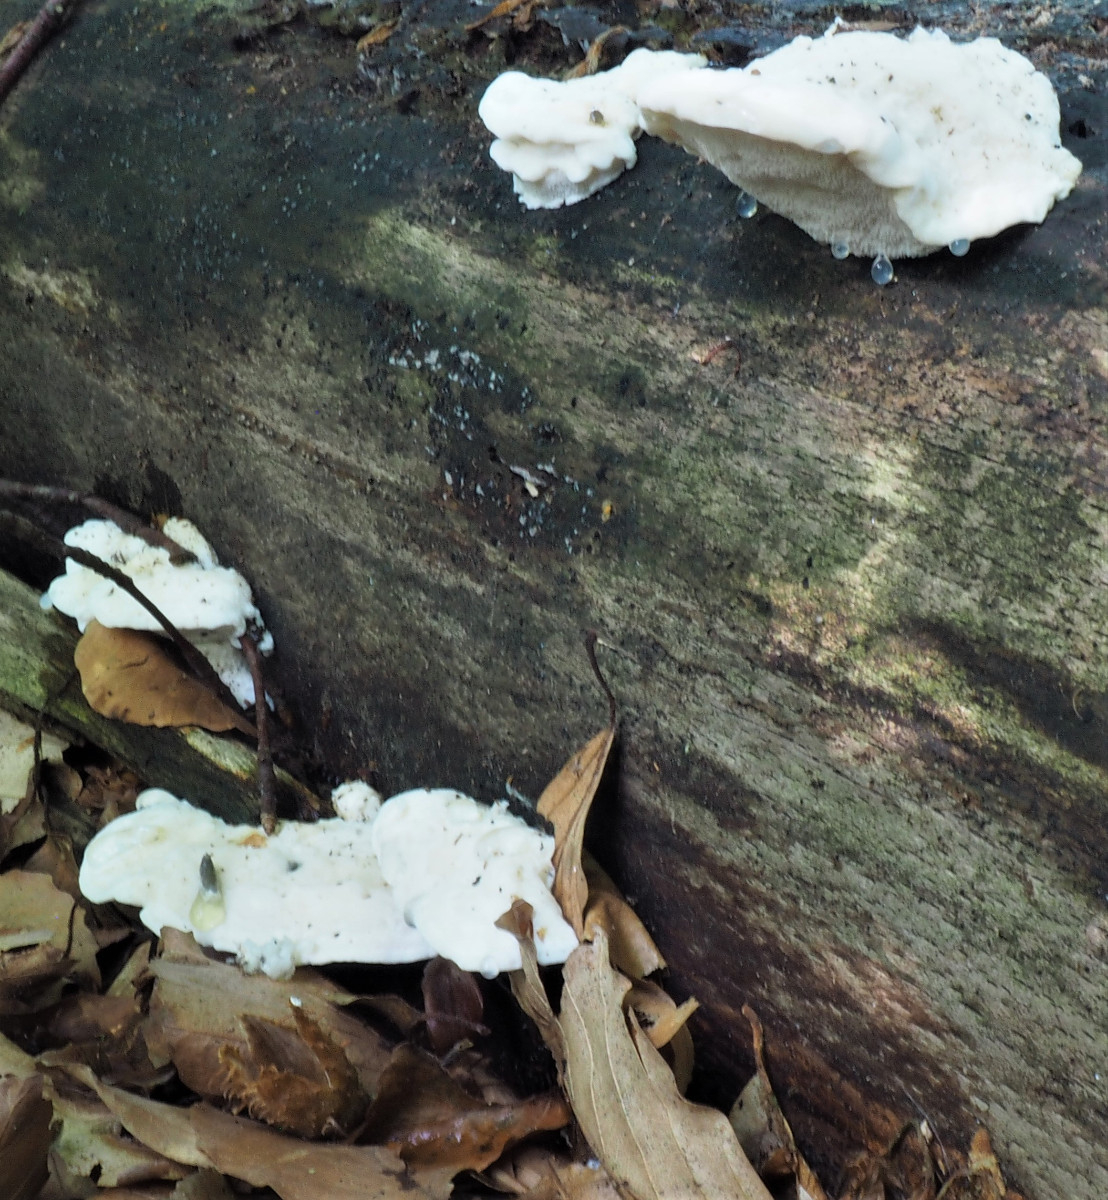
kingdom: Fungi
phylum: Basidiomycota
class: Agaricomycetes
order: Polyporales
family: Incrustoporiaceae
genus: Tyromyces
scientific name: Tyromyces chioneus
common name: stor blødporesvamp
